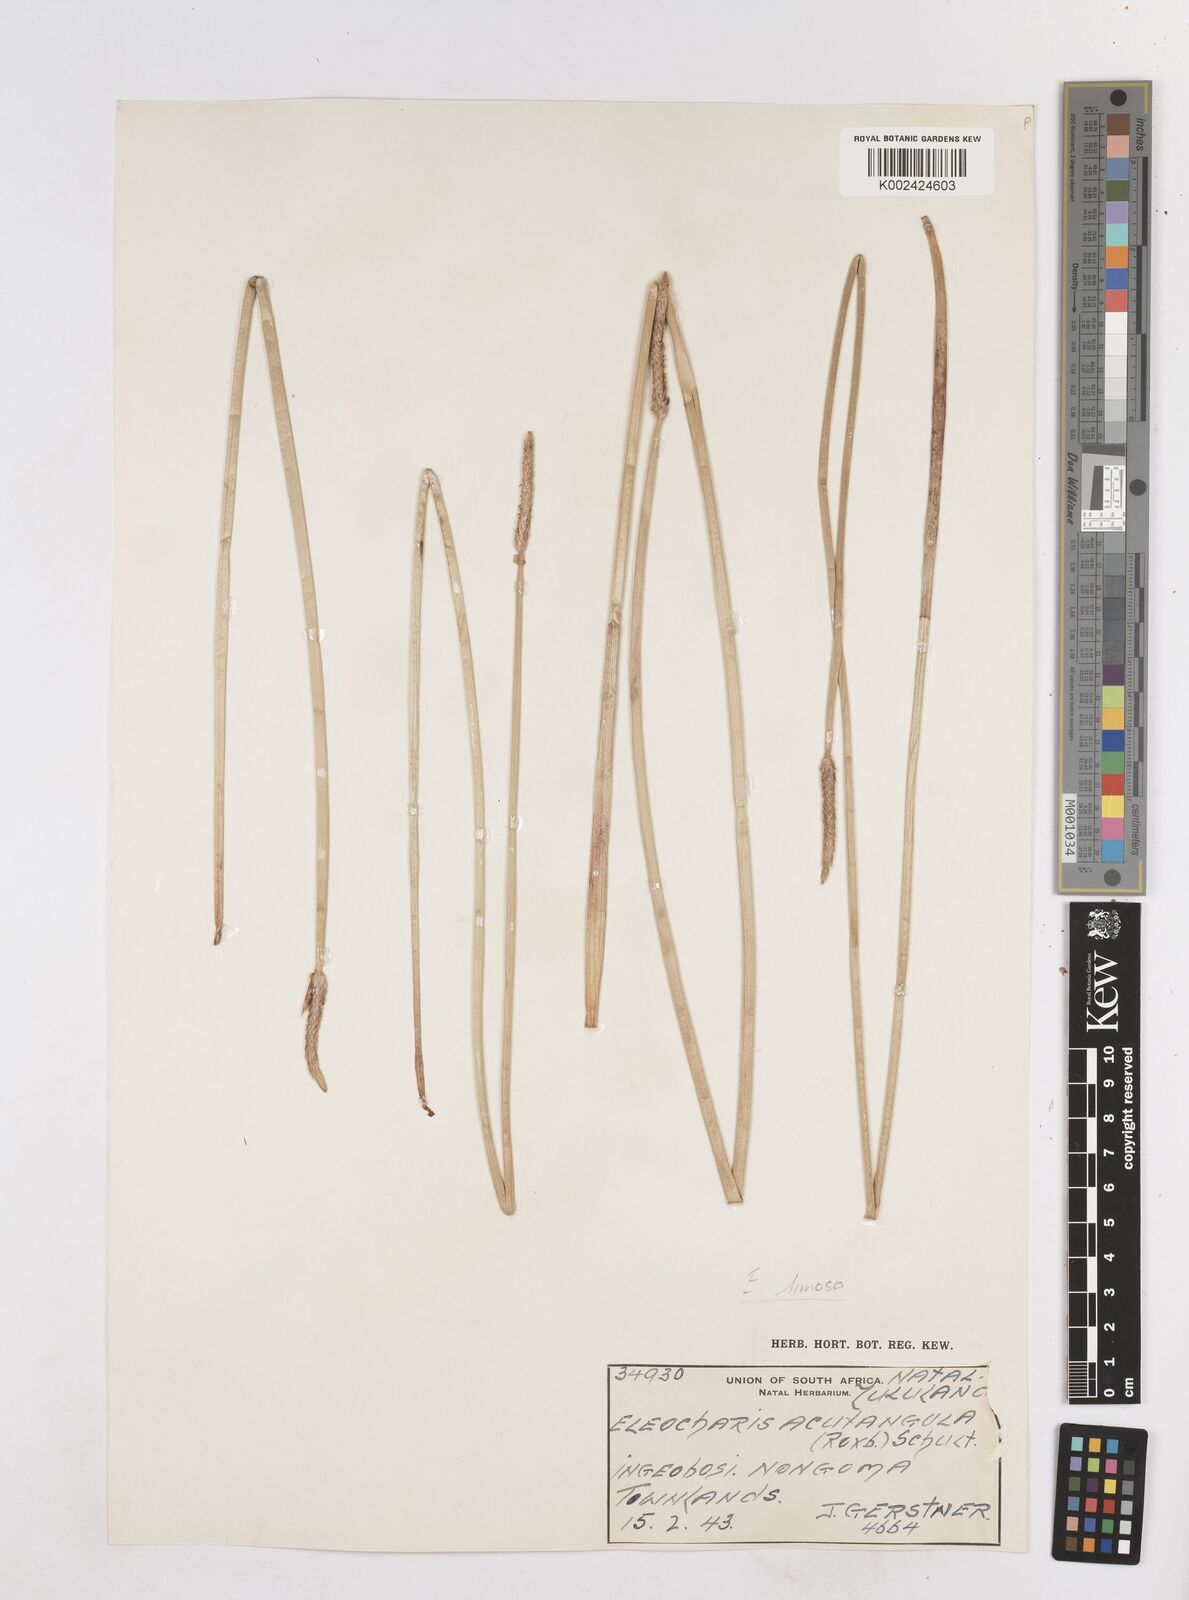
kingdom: Plantae
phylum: Tracheophyta
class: Liliopsida
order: Poales
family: Cyperaceae
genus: Eleocharis
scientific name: Eleocharis limosa
